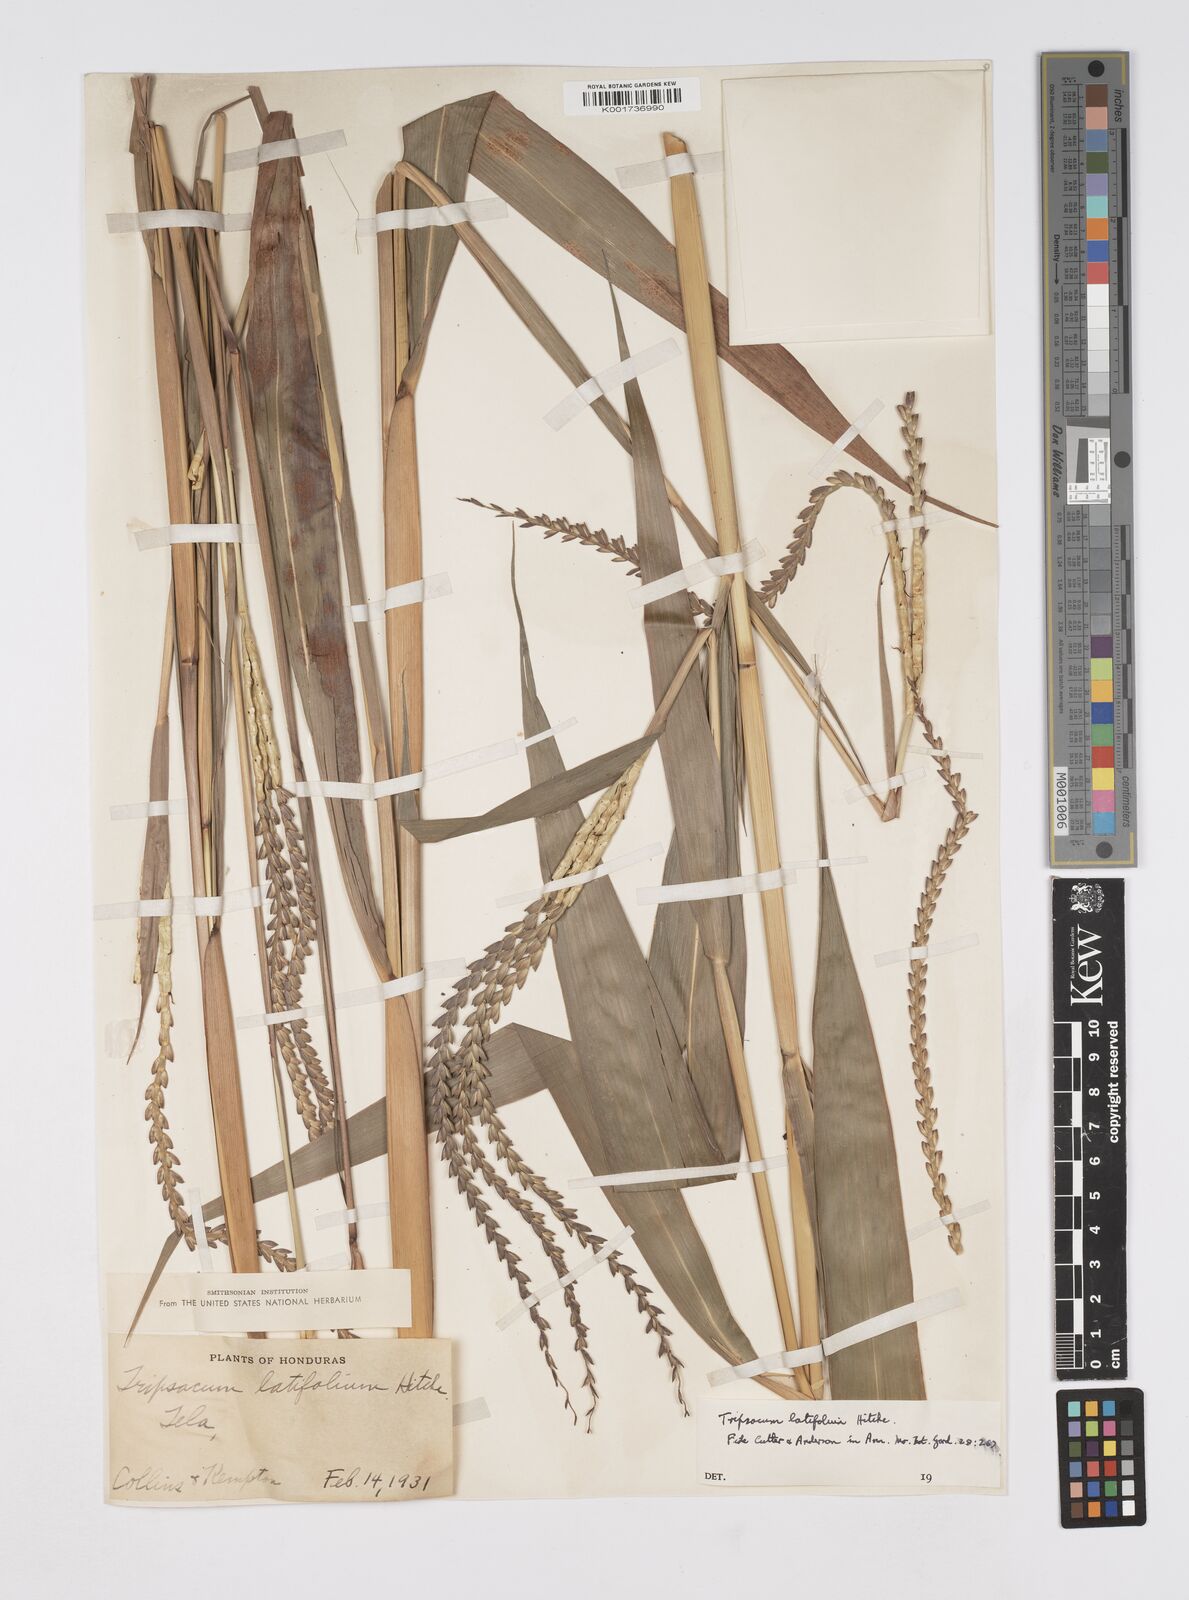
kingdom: Plantae
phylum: Tracheophyta
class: Liliopsida
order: Poales
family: Poaceae
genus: Tripsacum
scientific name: Tripsacum latifolium
